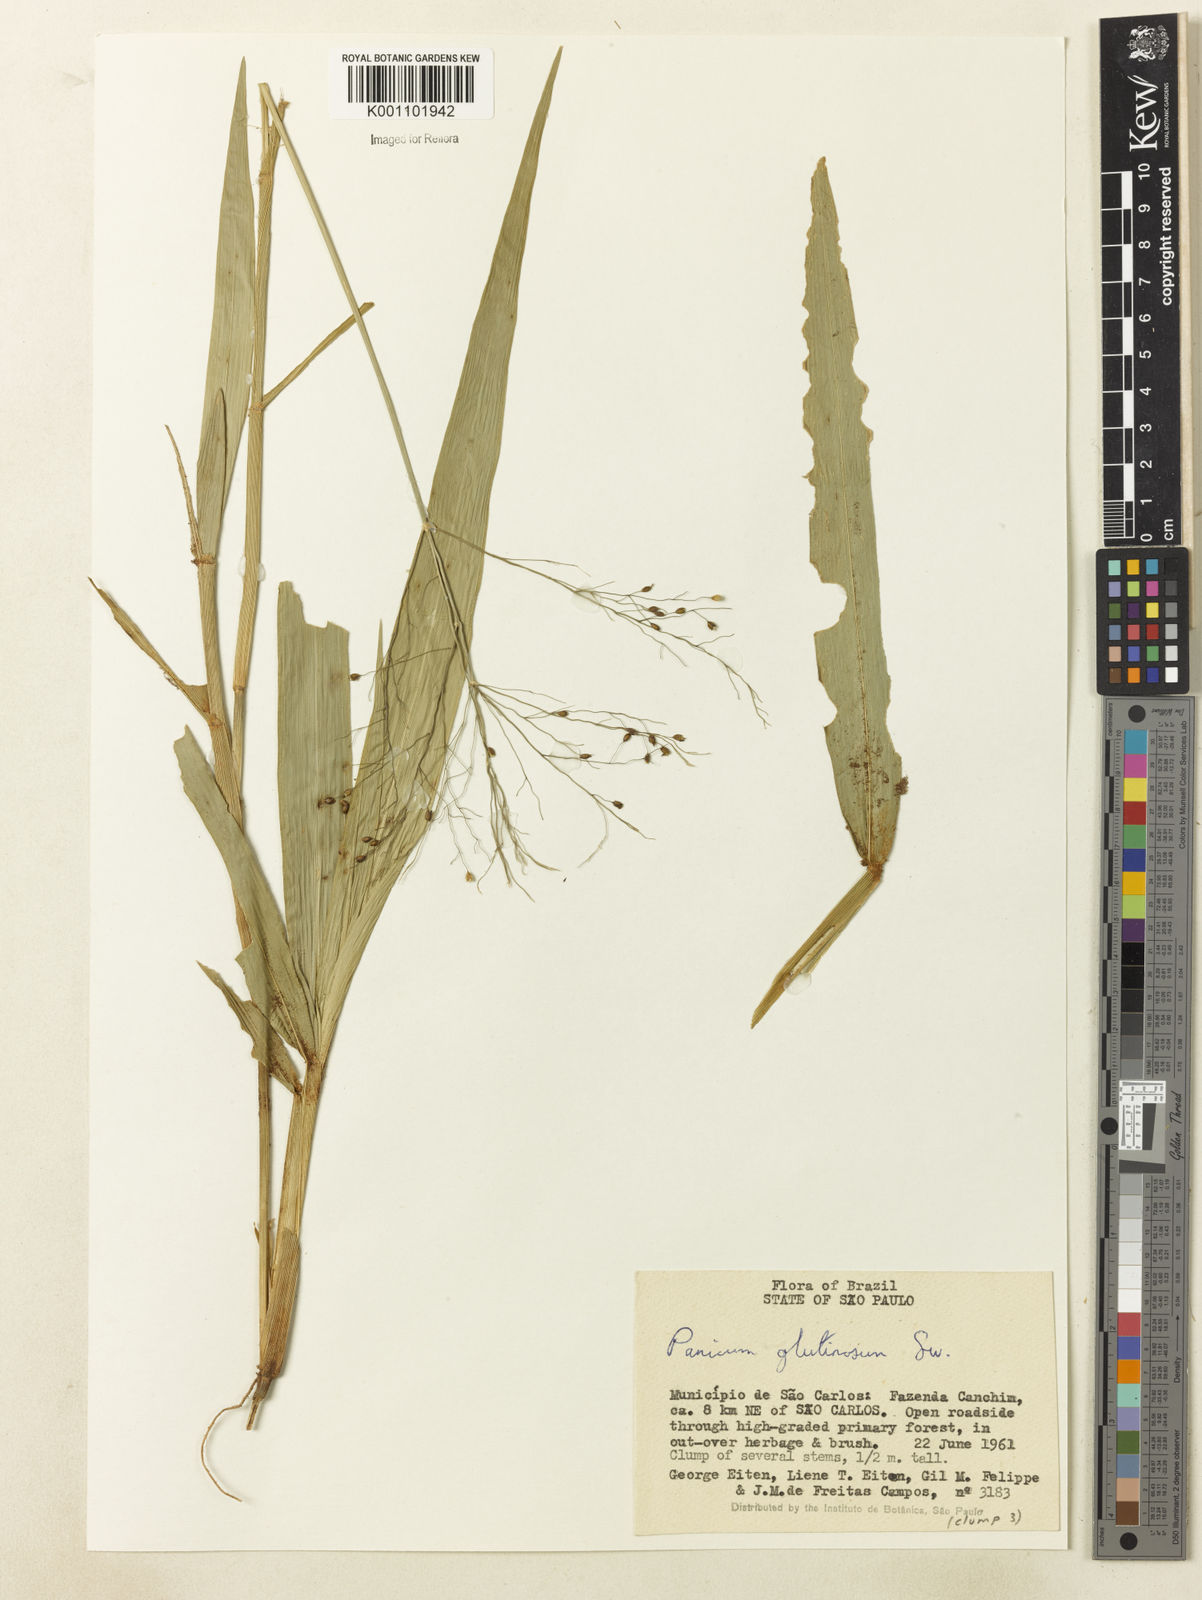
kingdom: Plantae
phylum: Tracheophyta
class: Liliopsida
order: Poales
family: Poaceae
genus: Homolepis
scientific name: Homolepis glutinosa
